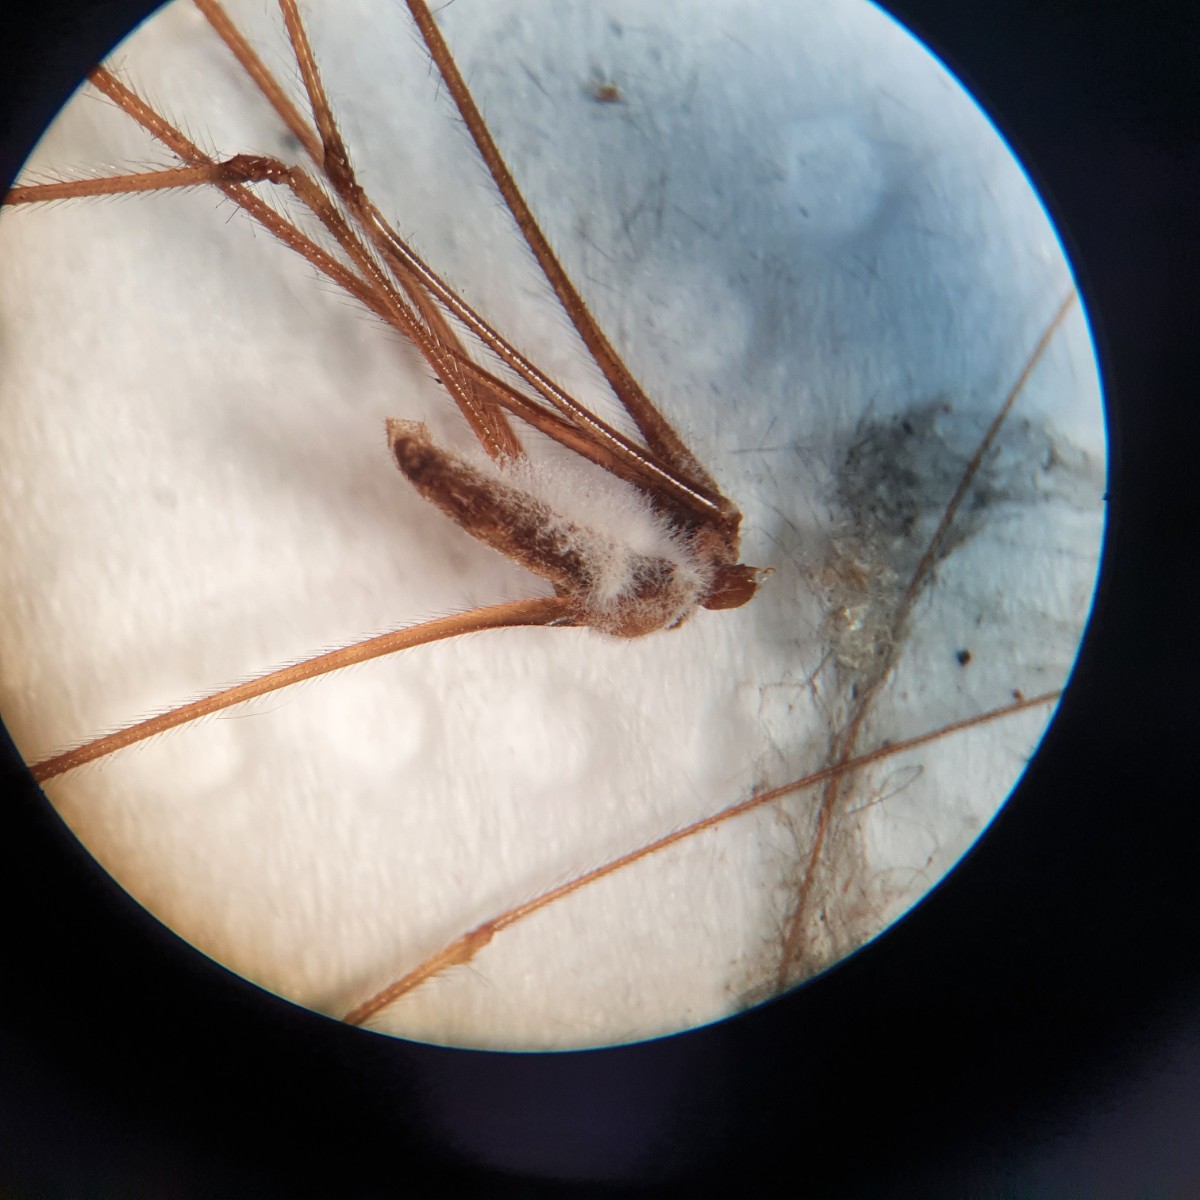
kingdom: Fungi
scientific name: Fungi
